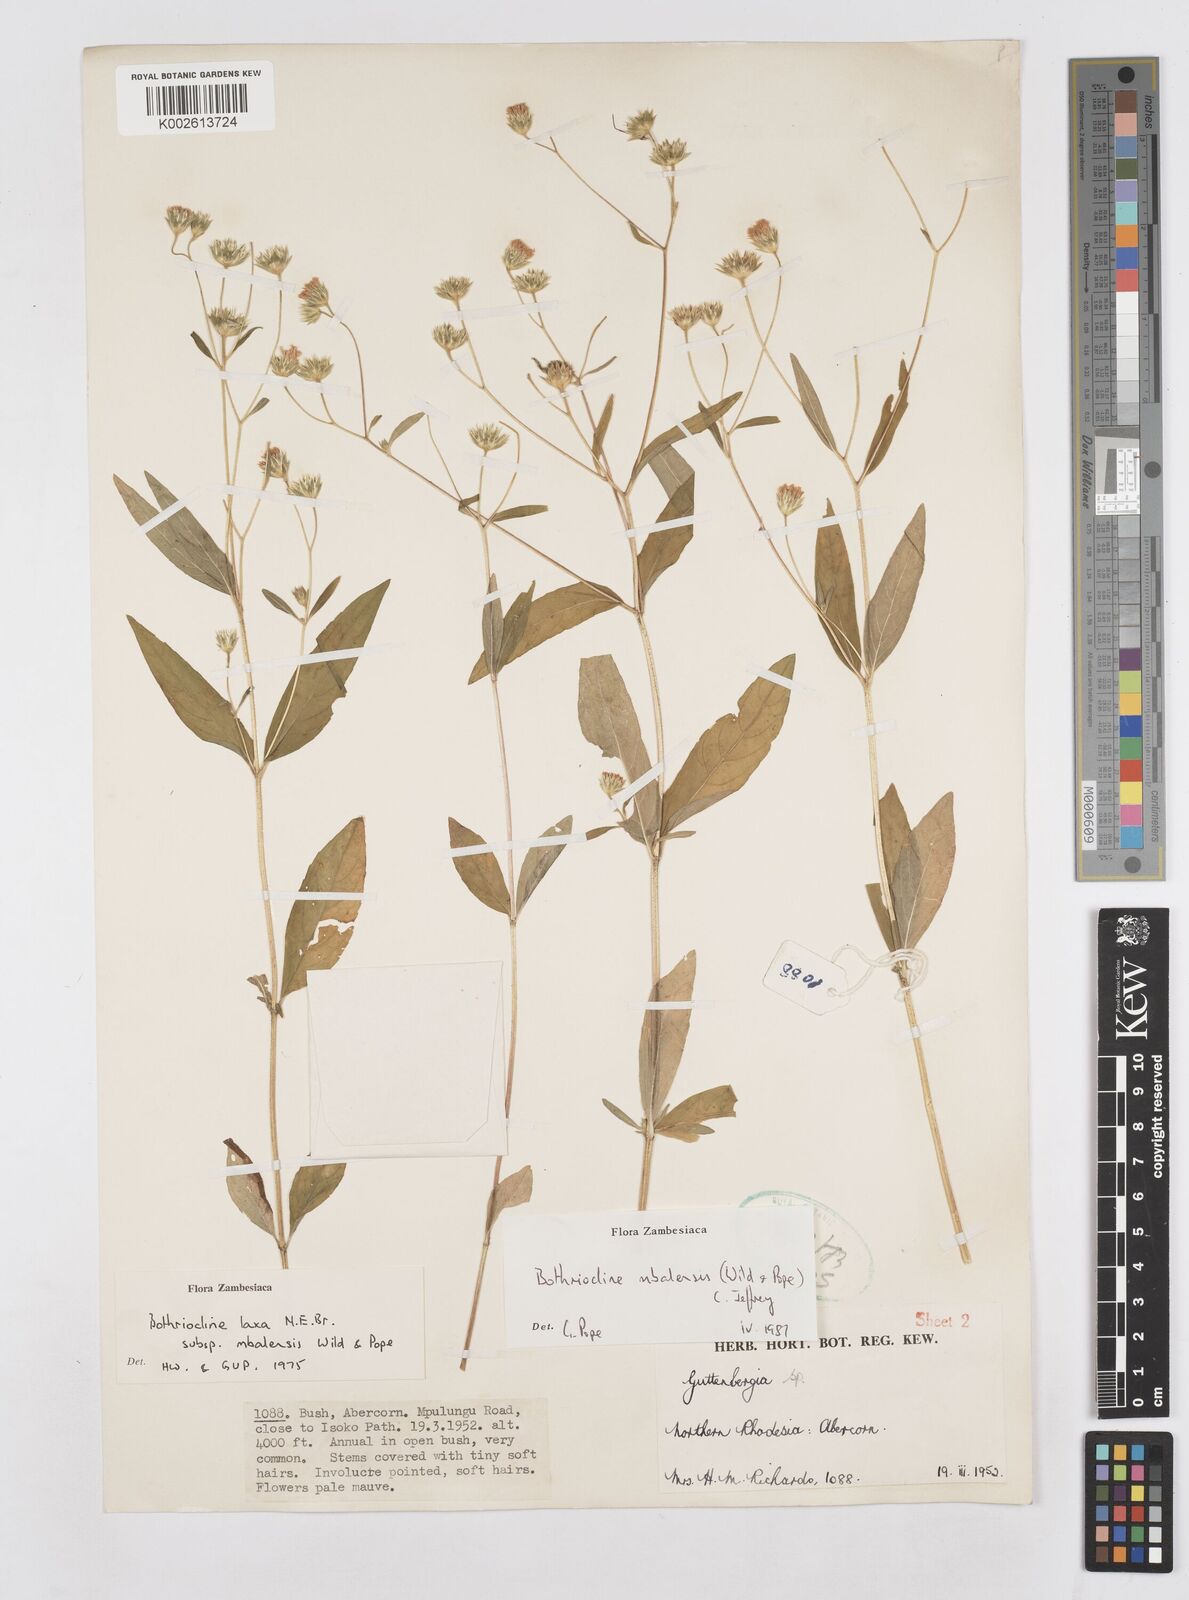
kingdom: Plantae
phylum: Tracheophyta
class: Magnoliopsida
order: Asterales
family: Asteraceae
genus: Bothriocline
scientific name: Bothriocline mbalensis
